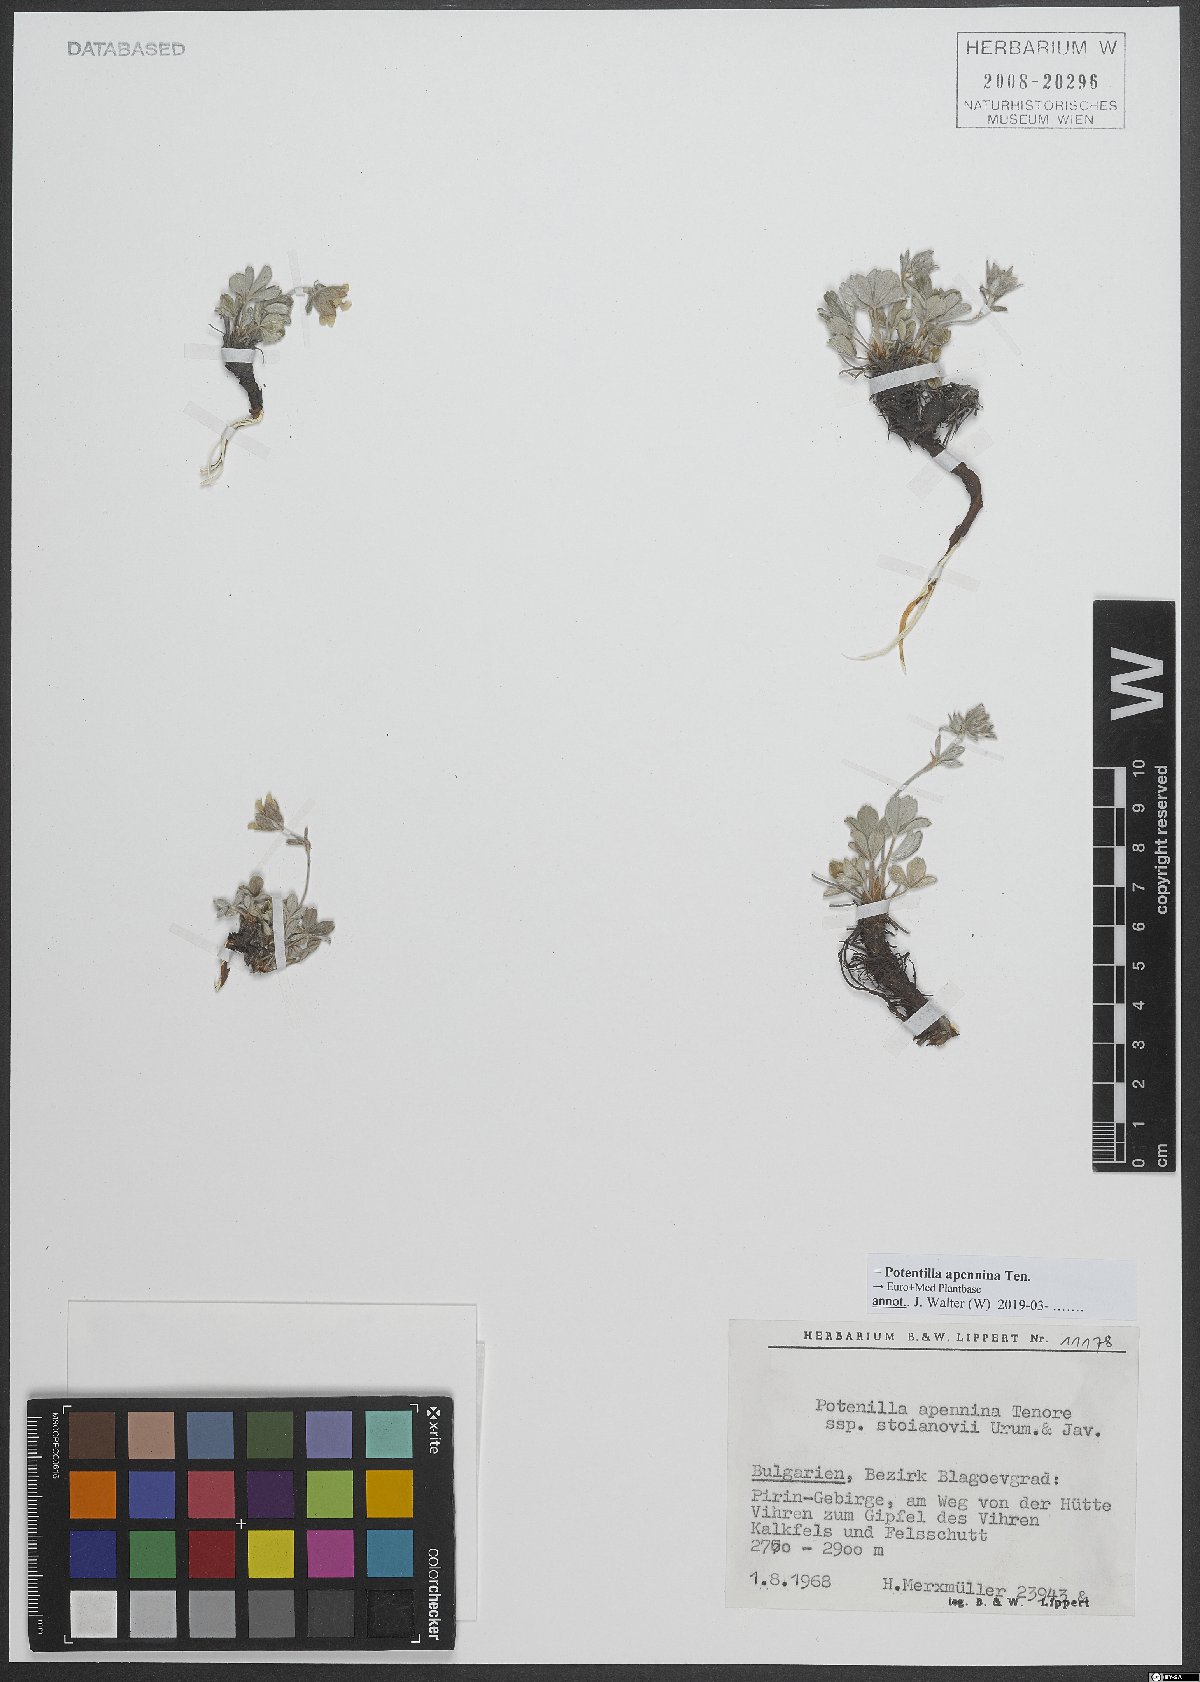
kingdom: Plantae
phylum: Tracheophyta
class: Magnoliopsida
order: Rosales
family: Rosaceae
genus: Potentilla
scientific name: Potentilla apennina
